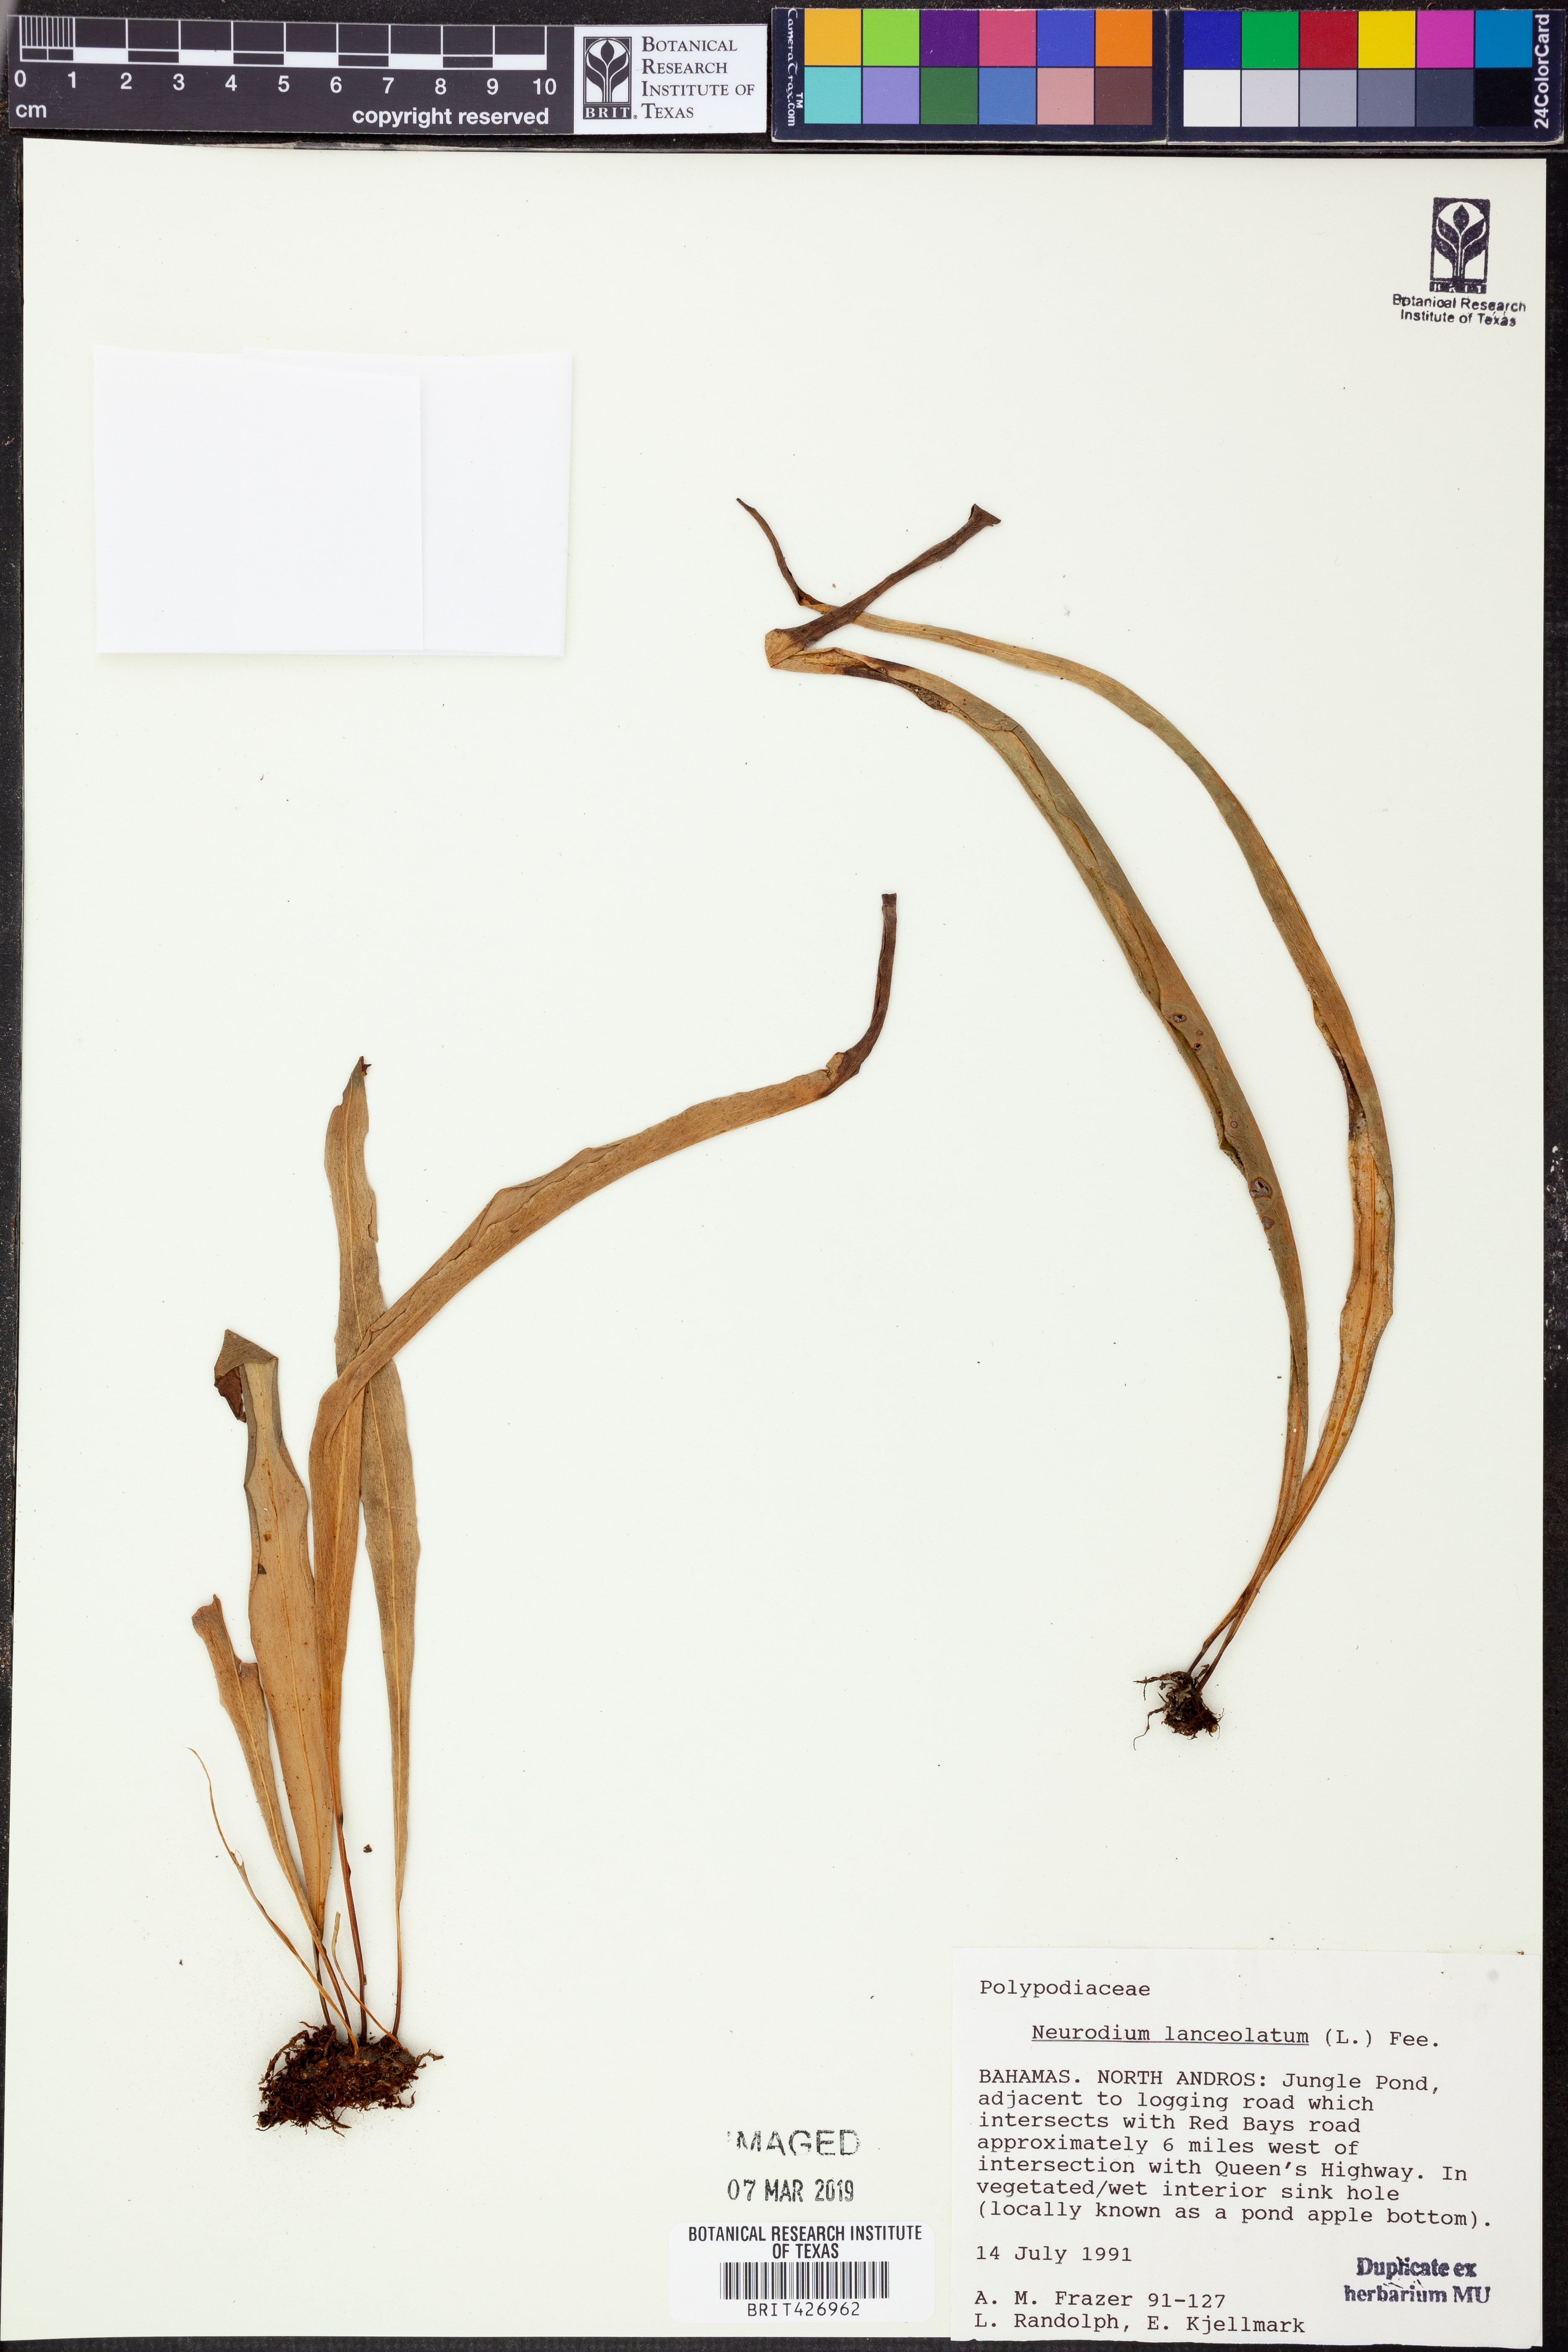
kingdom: Plantae
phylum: Tracheophyta
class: Polypodiopsida
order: Polypodiales
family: Polypodiaceae
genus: Pleopeltis
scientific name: Pleopeltis marginata
